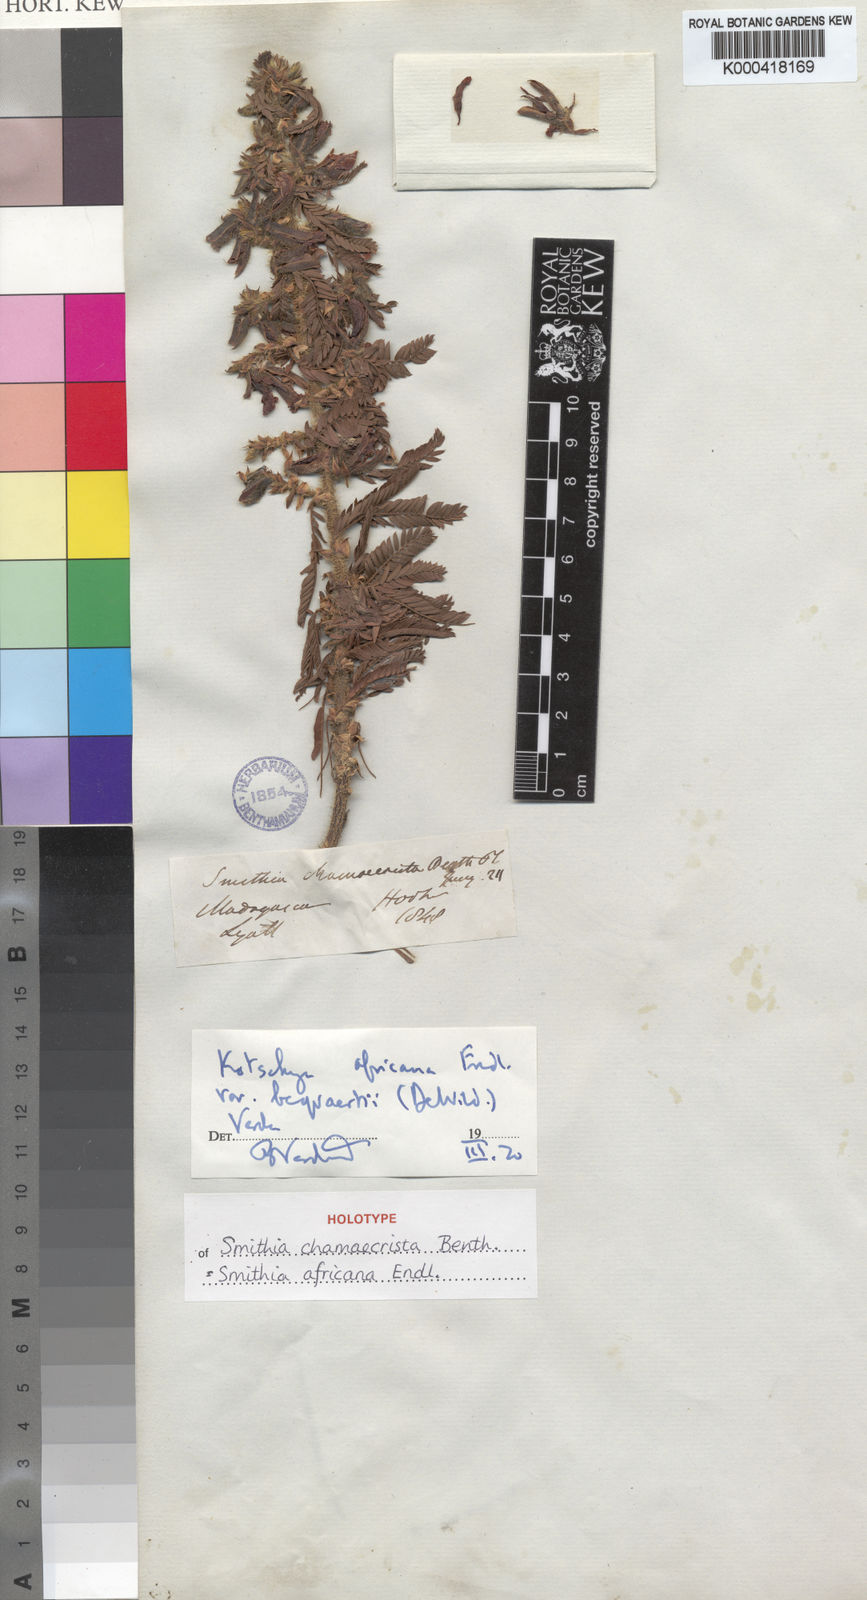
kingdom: Plantae
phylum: Tracheophyta
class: Magnoliopsida
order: Fabales
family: Fabaceae
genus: Kotschya
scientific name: Kotschya africana
